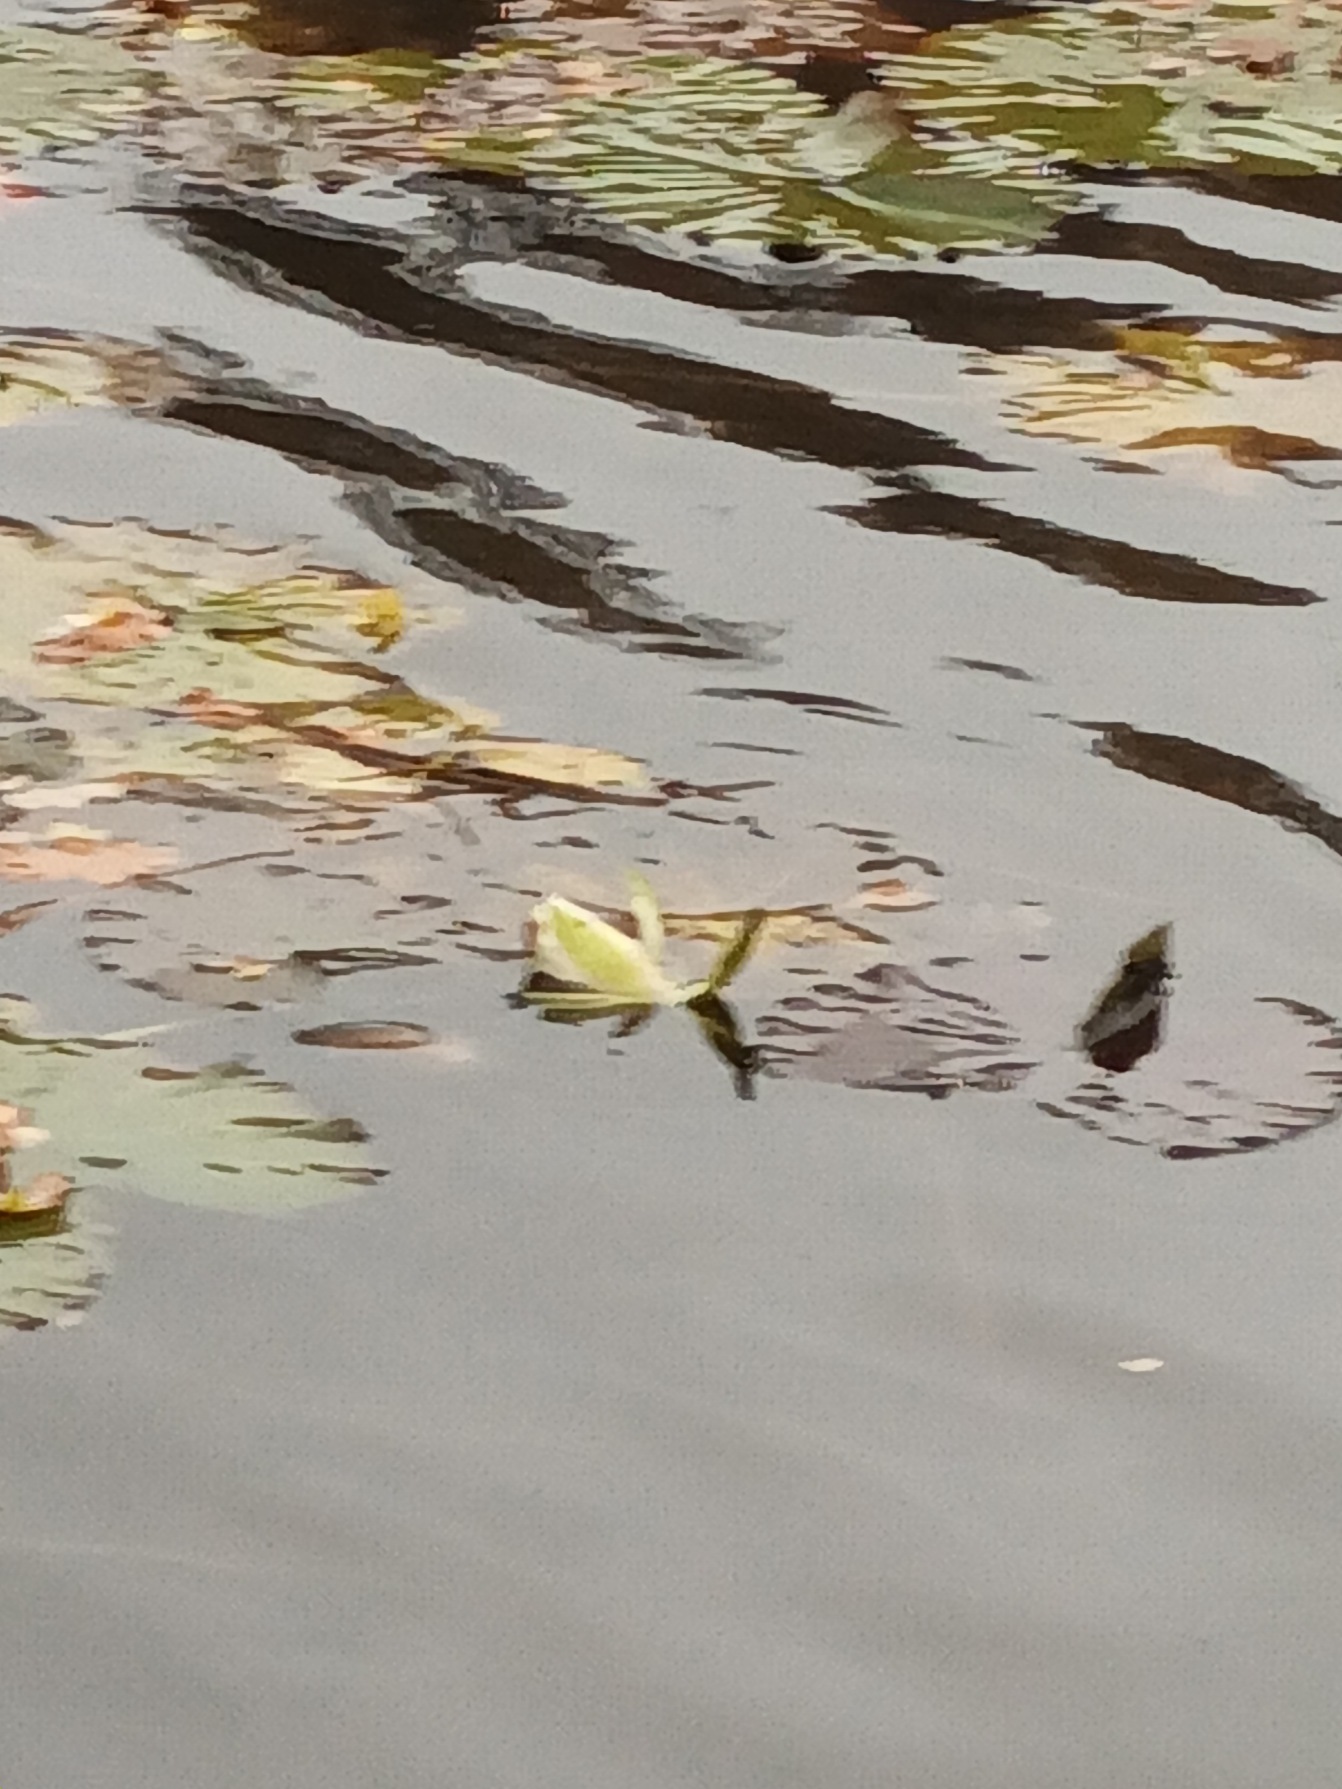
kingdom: Plantae
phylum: Tracheophyta
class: Magnoliopsida
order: Nymphaeales
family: Nymphaeaceae
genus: Nymphaea
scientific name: Nymphaea alba
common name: Hvid åkande
